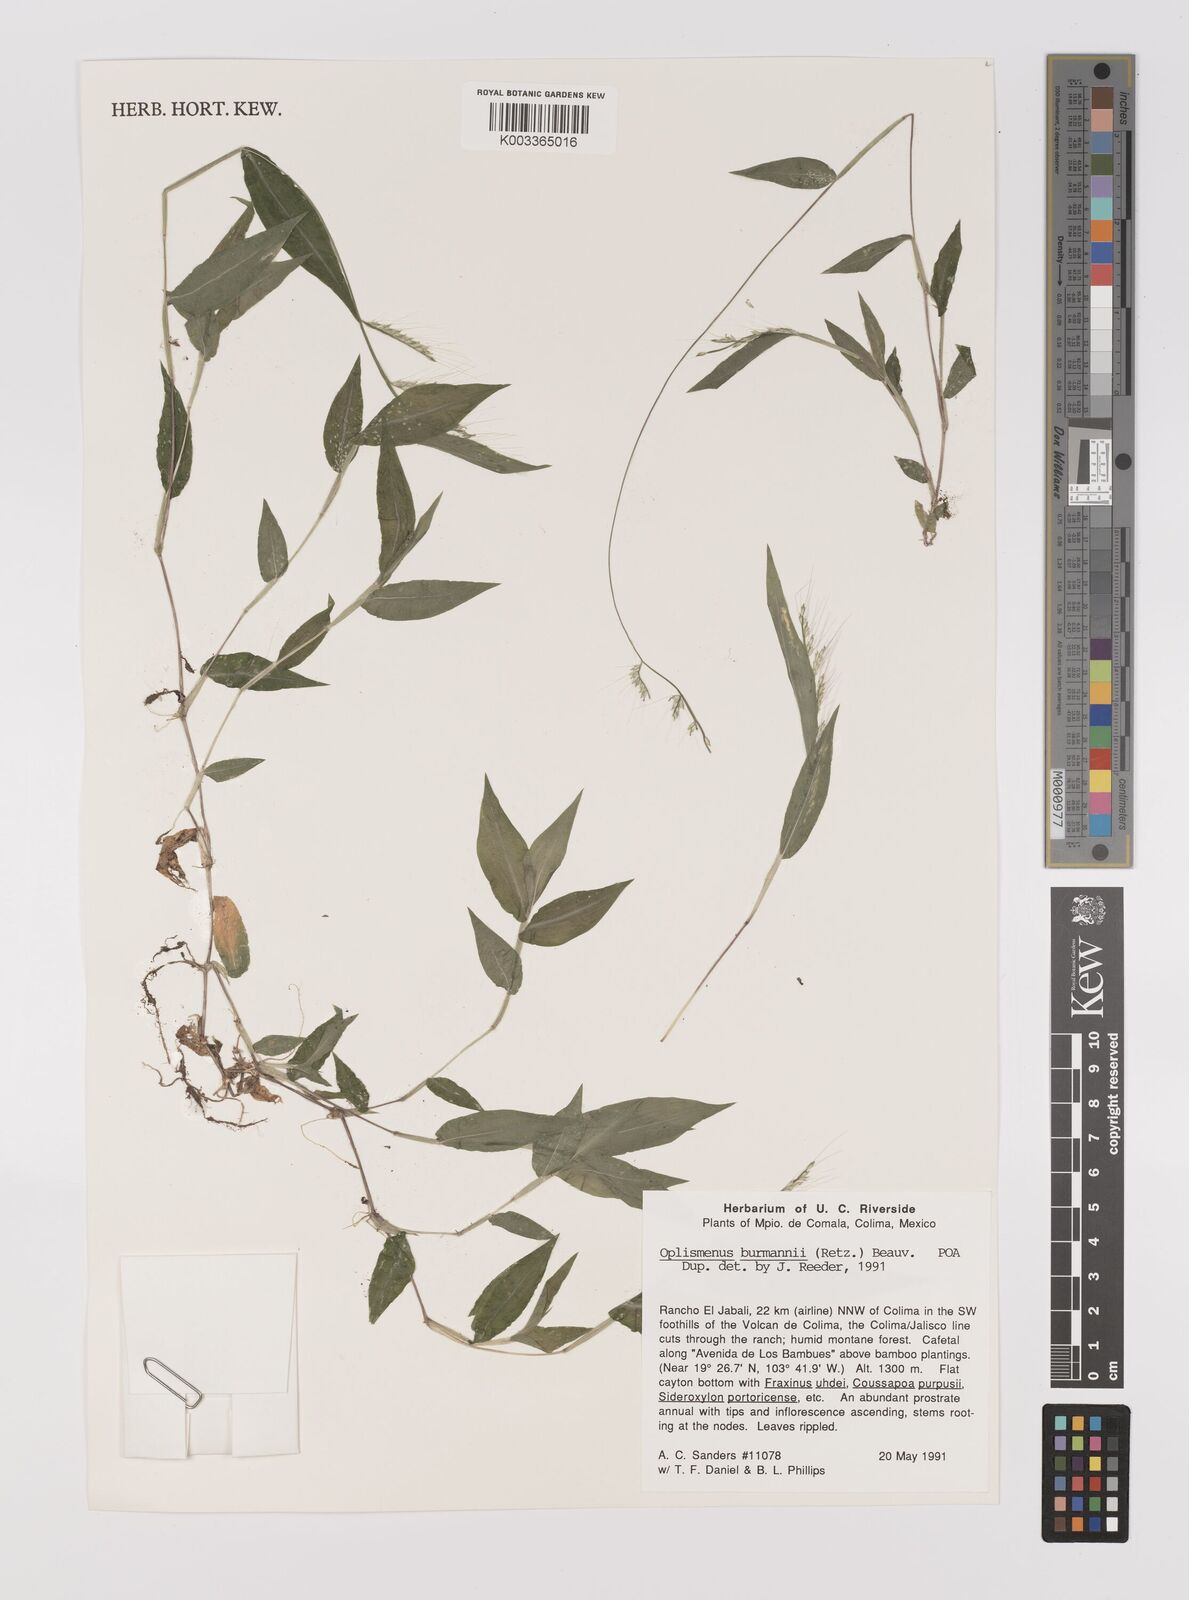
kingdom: Plantae
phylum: Tracheophyta
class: Liliopsida
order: Poales
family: Poaceae
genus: Oplismenus
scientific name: Oplismenus burmanni
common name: Burmann's basketgrass
